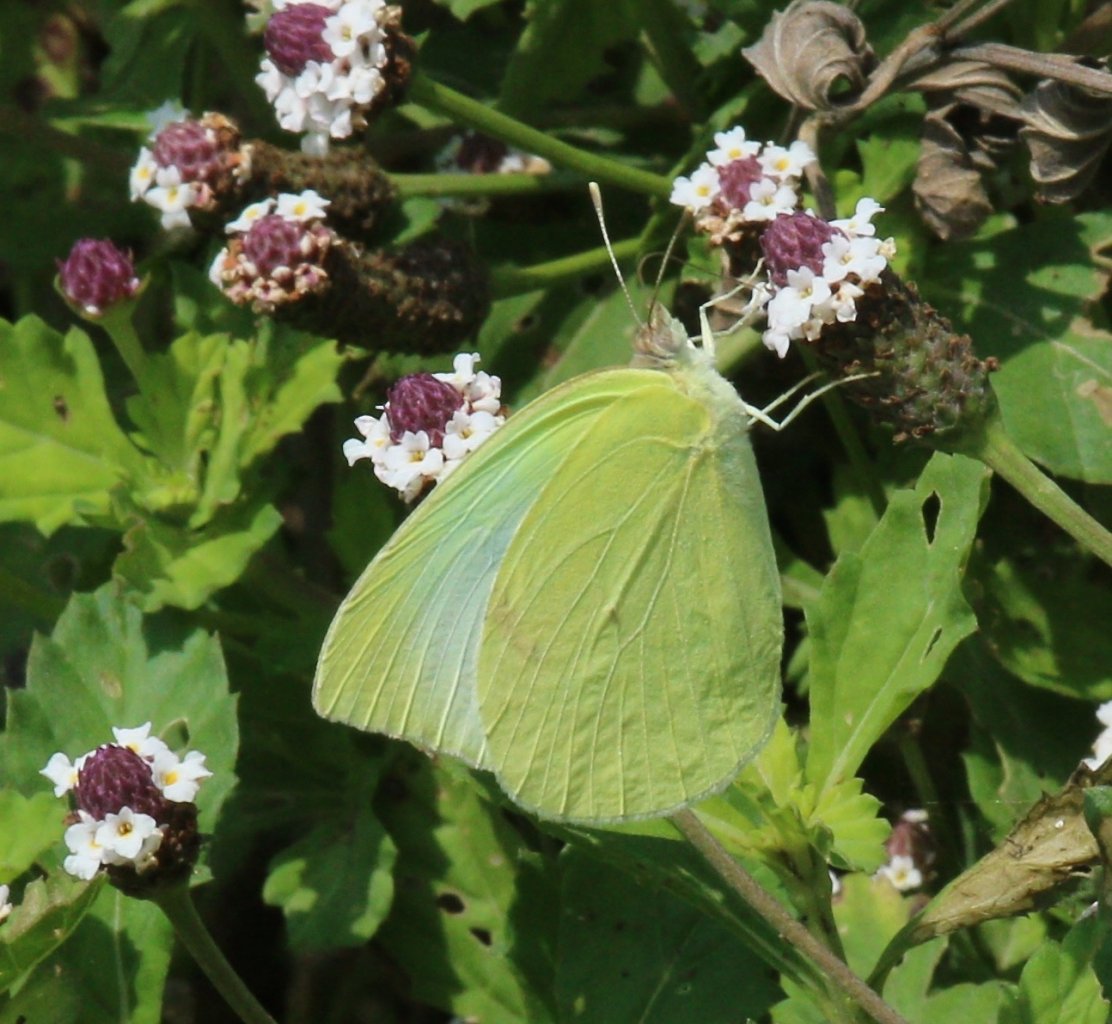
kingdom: Animalia
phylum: Arthropoda
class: Insecta
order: Lepidoptera
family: Pieridae
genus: Kricogonia
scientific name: Kricogonia lyside
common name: Lyside Sulphur
